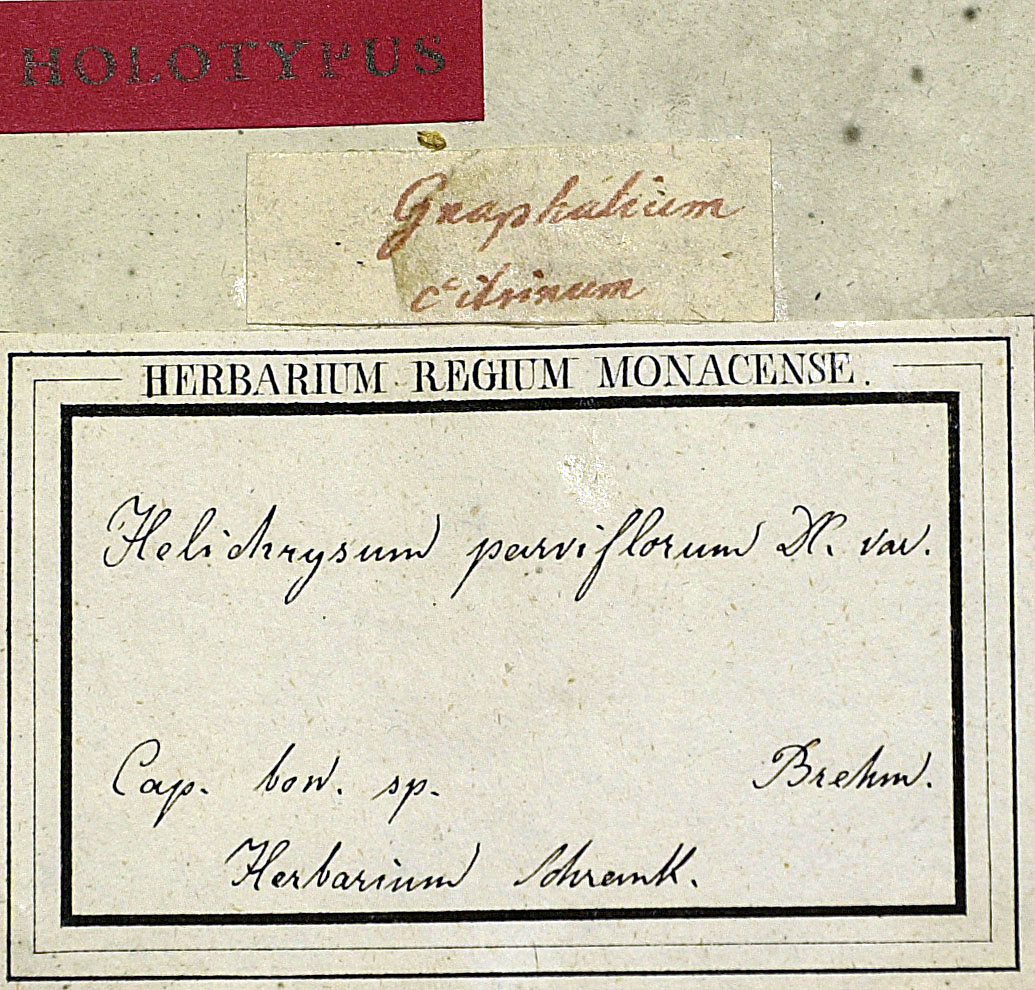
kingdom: Plantae
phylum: Tracheophyta
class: Magnoliopsida
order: Asterales
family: Asteraceae
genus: Helichrysum
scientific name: Helichrysum rutilans
